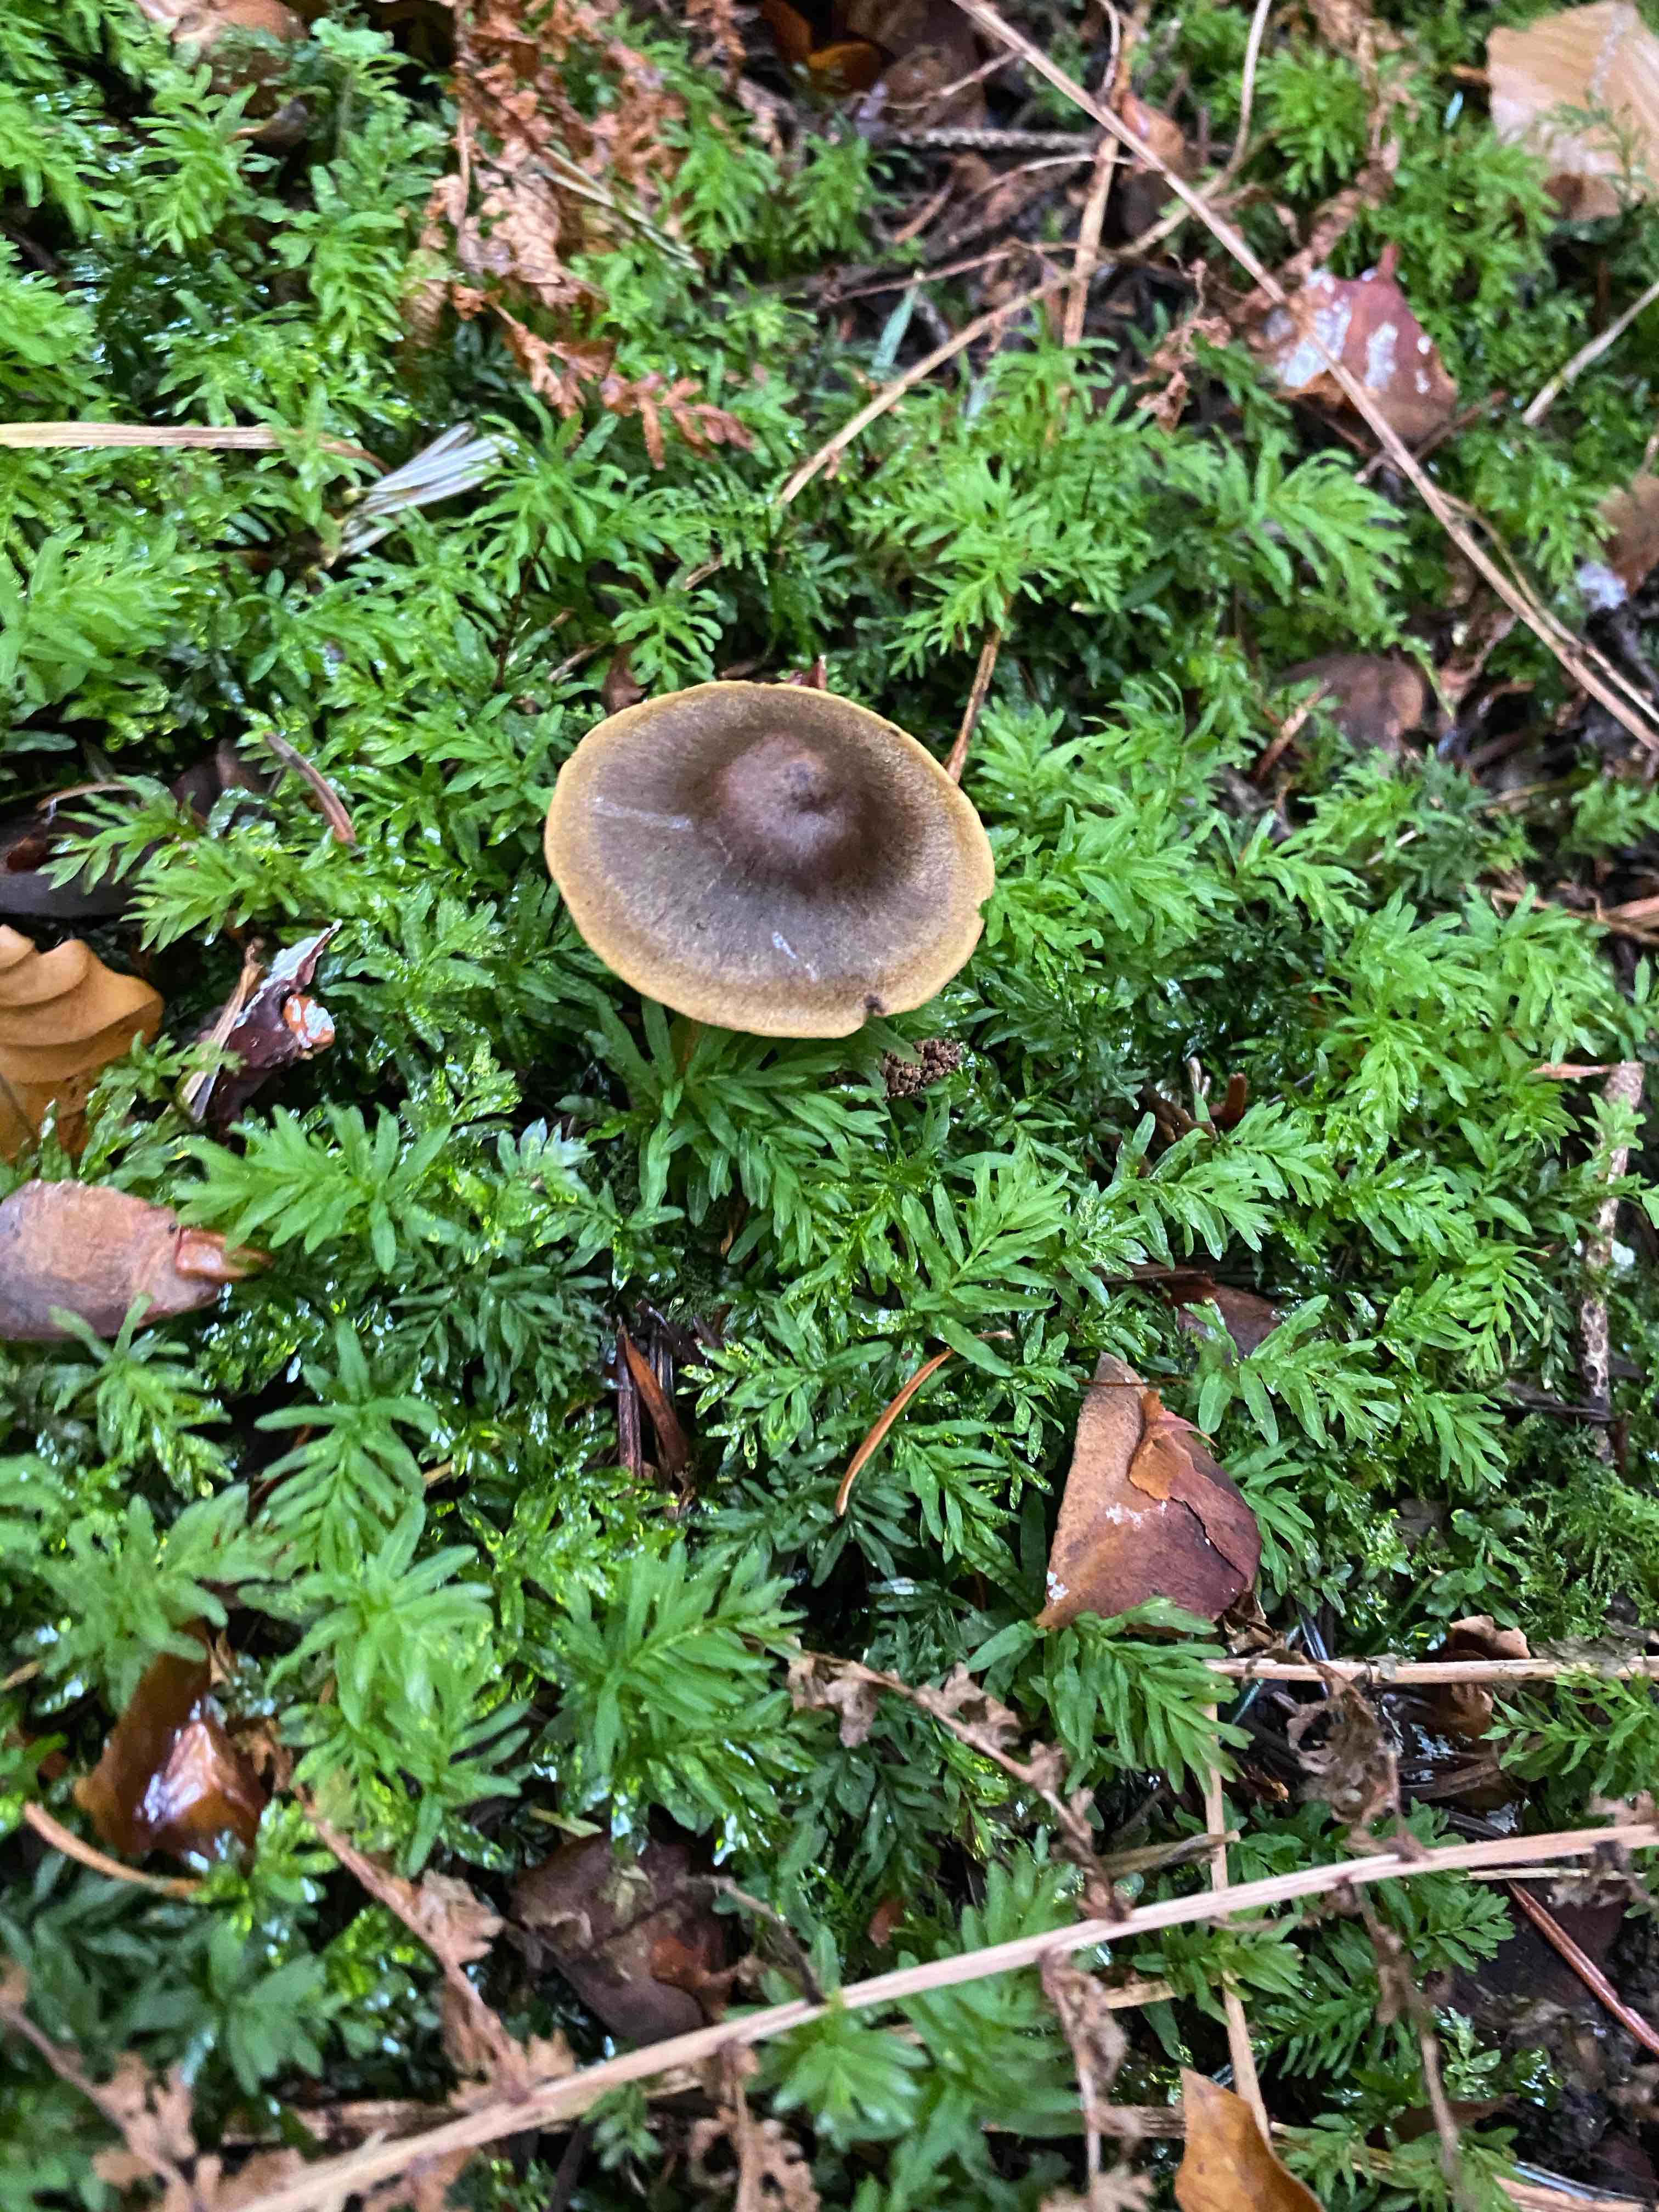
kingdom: Fungi
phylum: Basidiomycota
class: Agaricomycetes
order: Agaricales
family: Cortinariaceae
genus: Cortinarius
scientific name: Cortinarius raphanoides
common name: ræddike-slørhat
